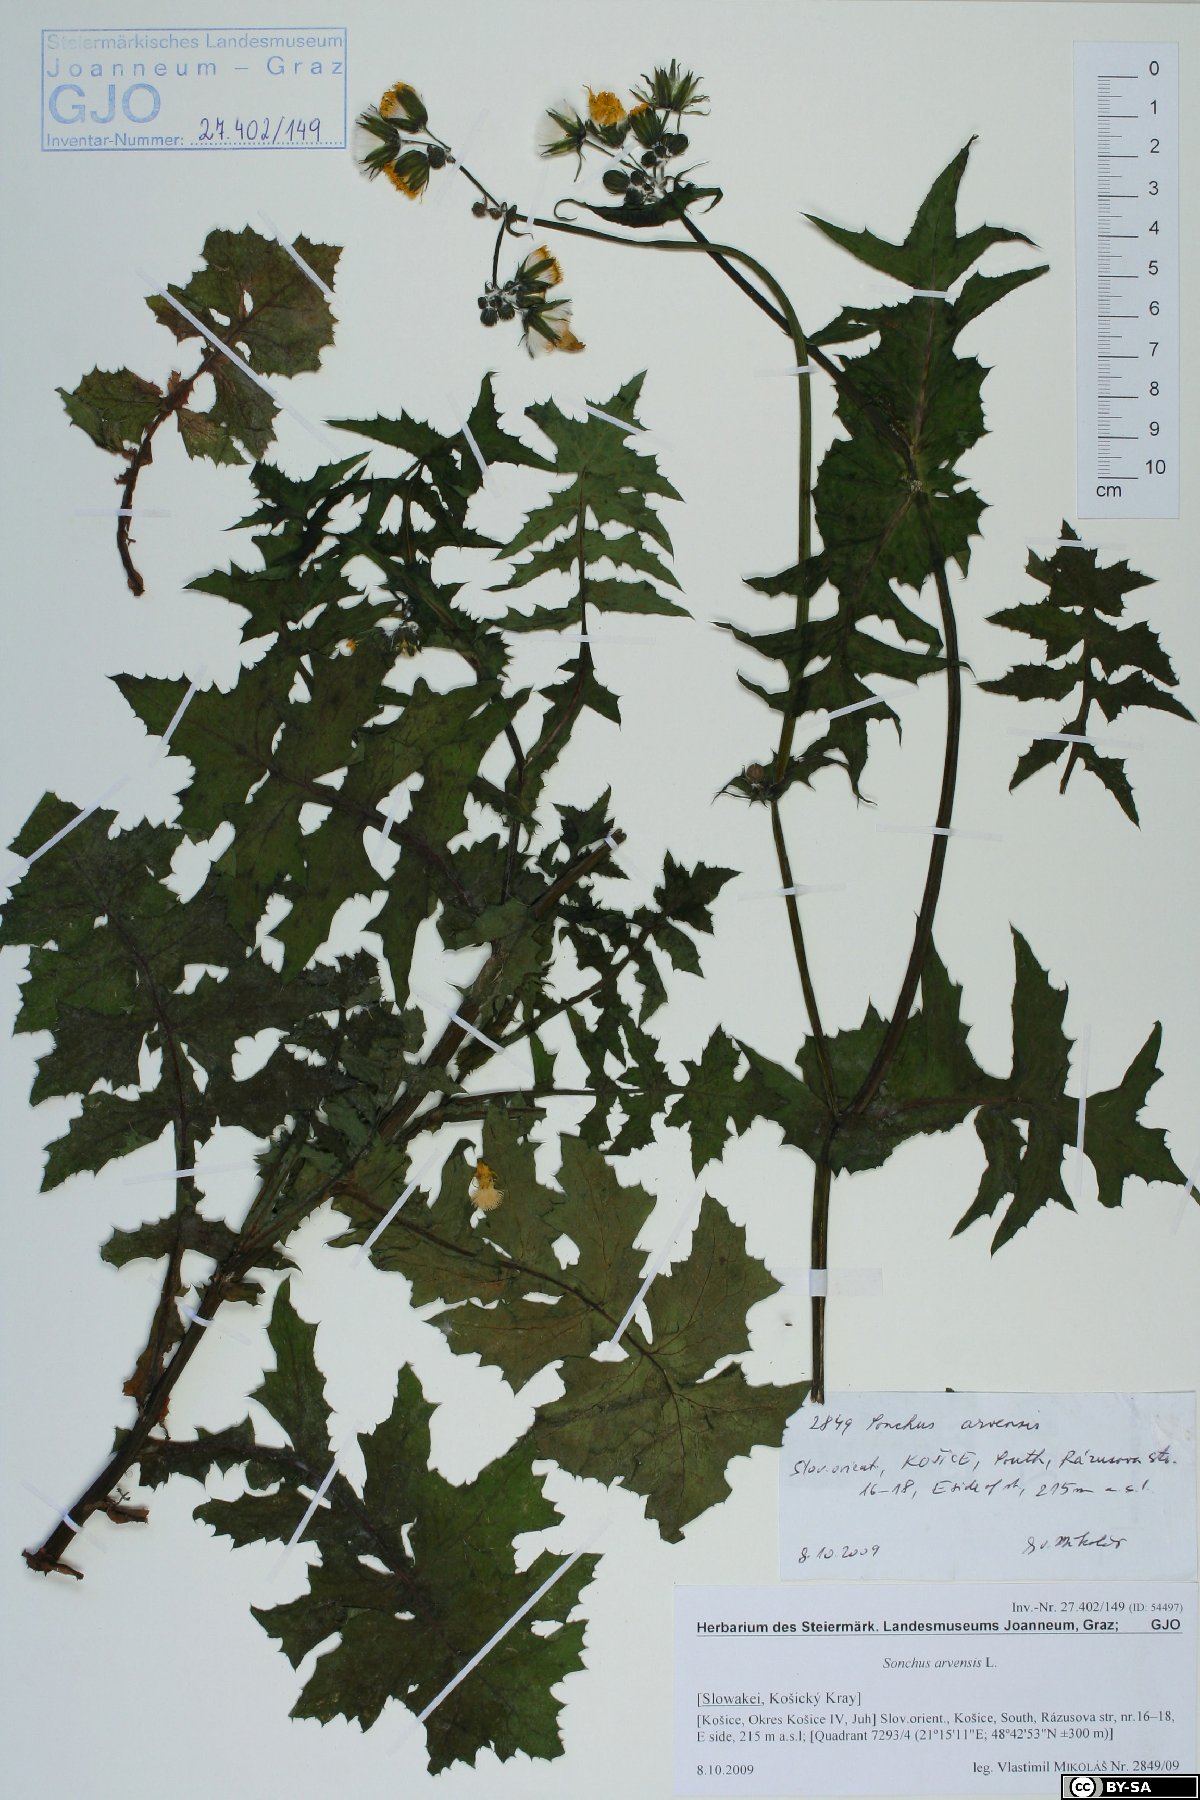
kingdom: Plantae
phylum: Tracheophyta
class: Magnoliopsida
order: Asterales
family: Asteraceae
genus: Sonchus
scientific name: Sonchus arvensis
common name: Perennial sow-thistle
